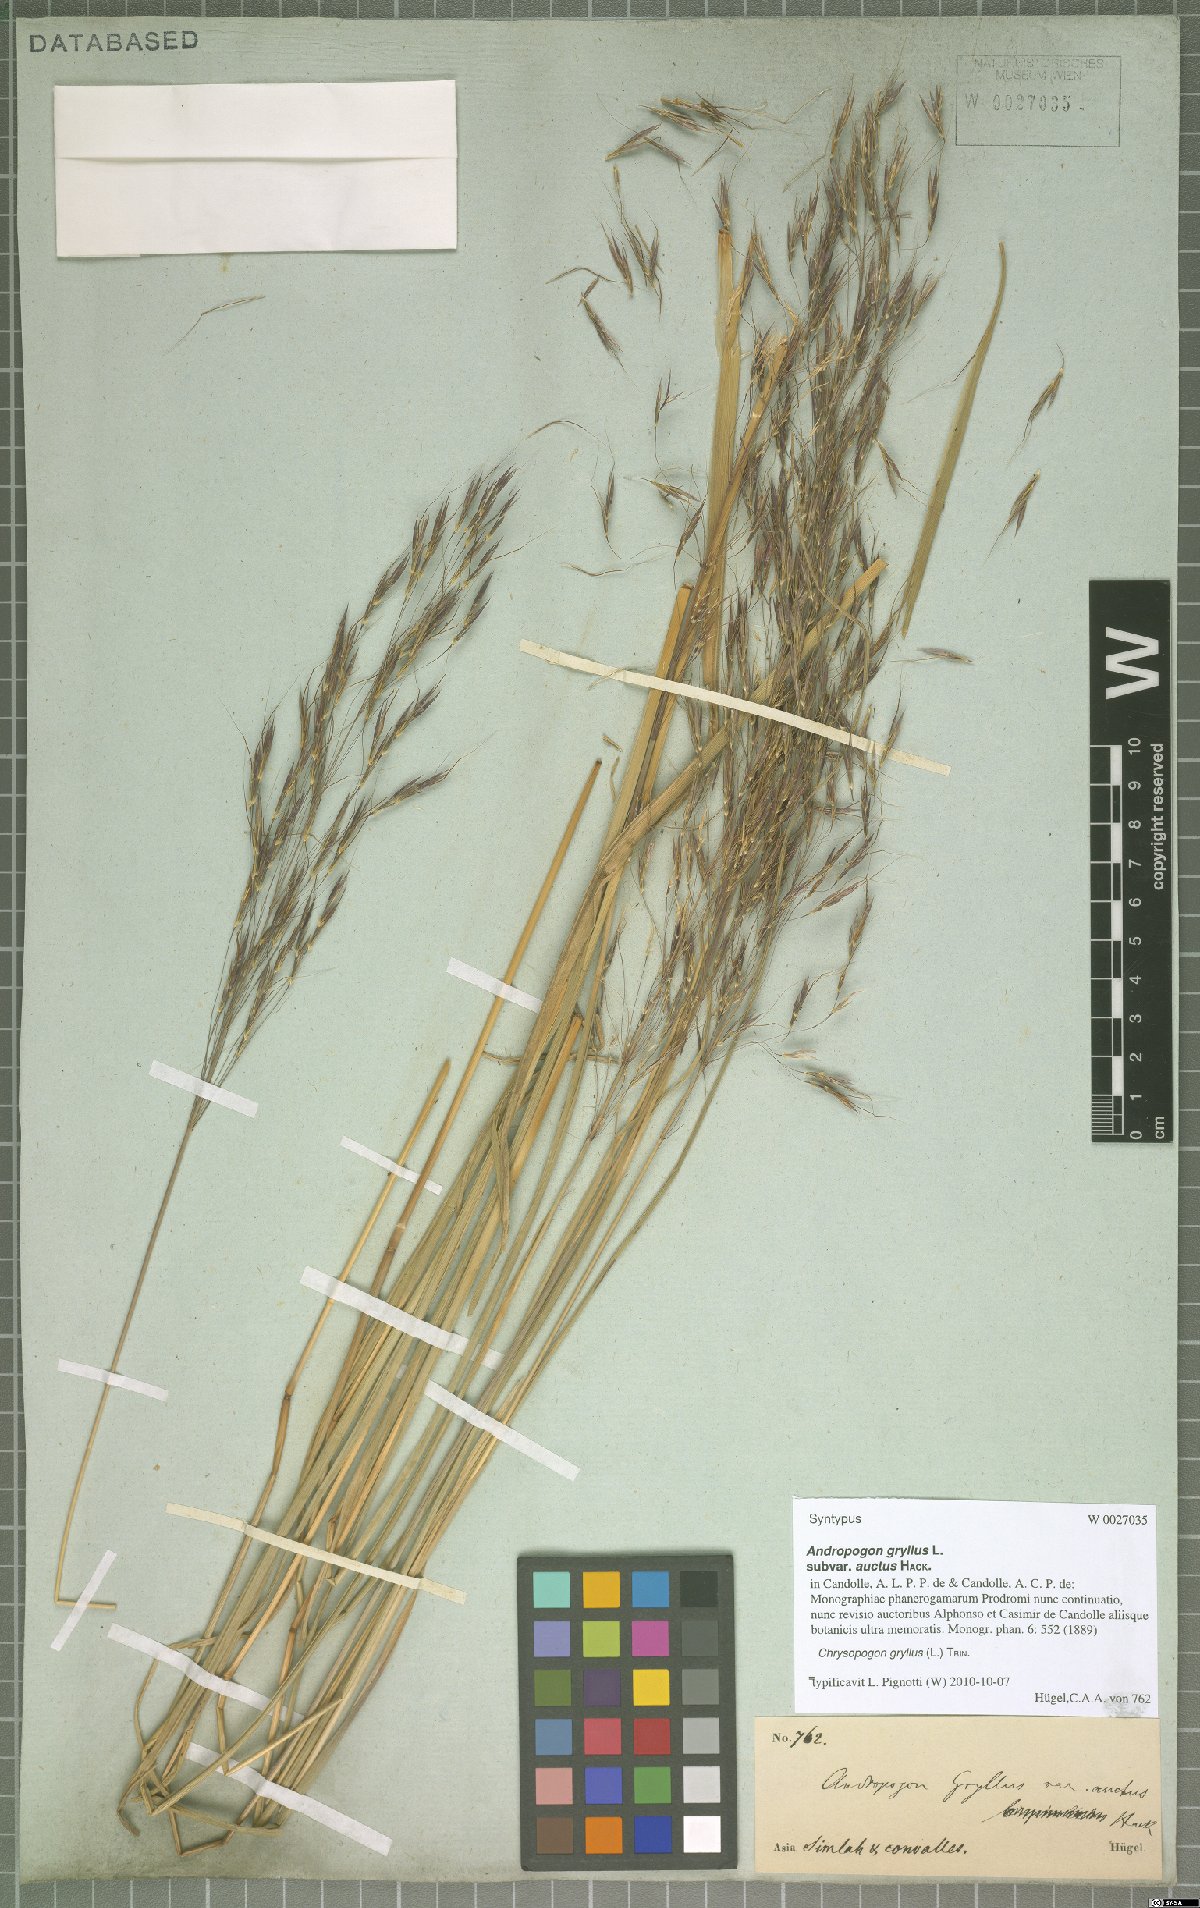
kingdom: Plantae
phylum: Tracheophyta
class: Liliopsida
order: Poales
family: Poaceae
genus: Chrysopogon
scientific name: Chrysopogon gryllus
